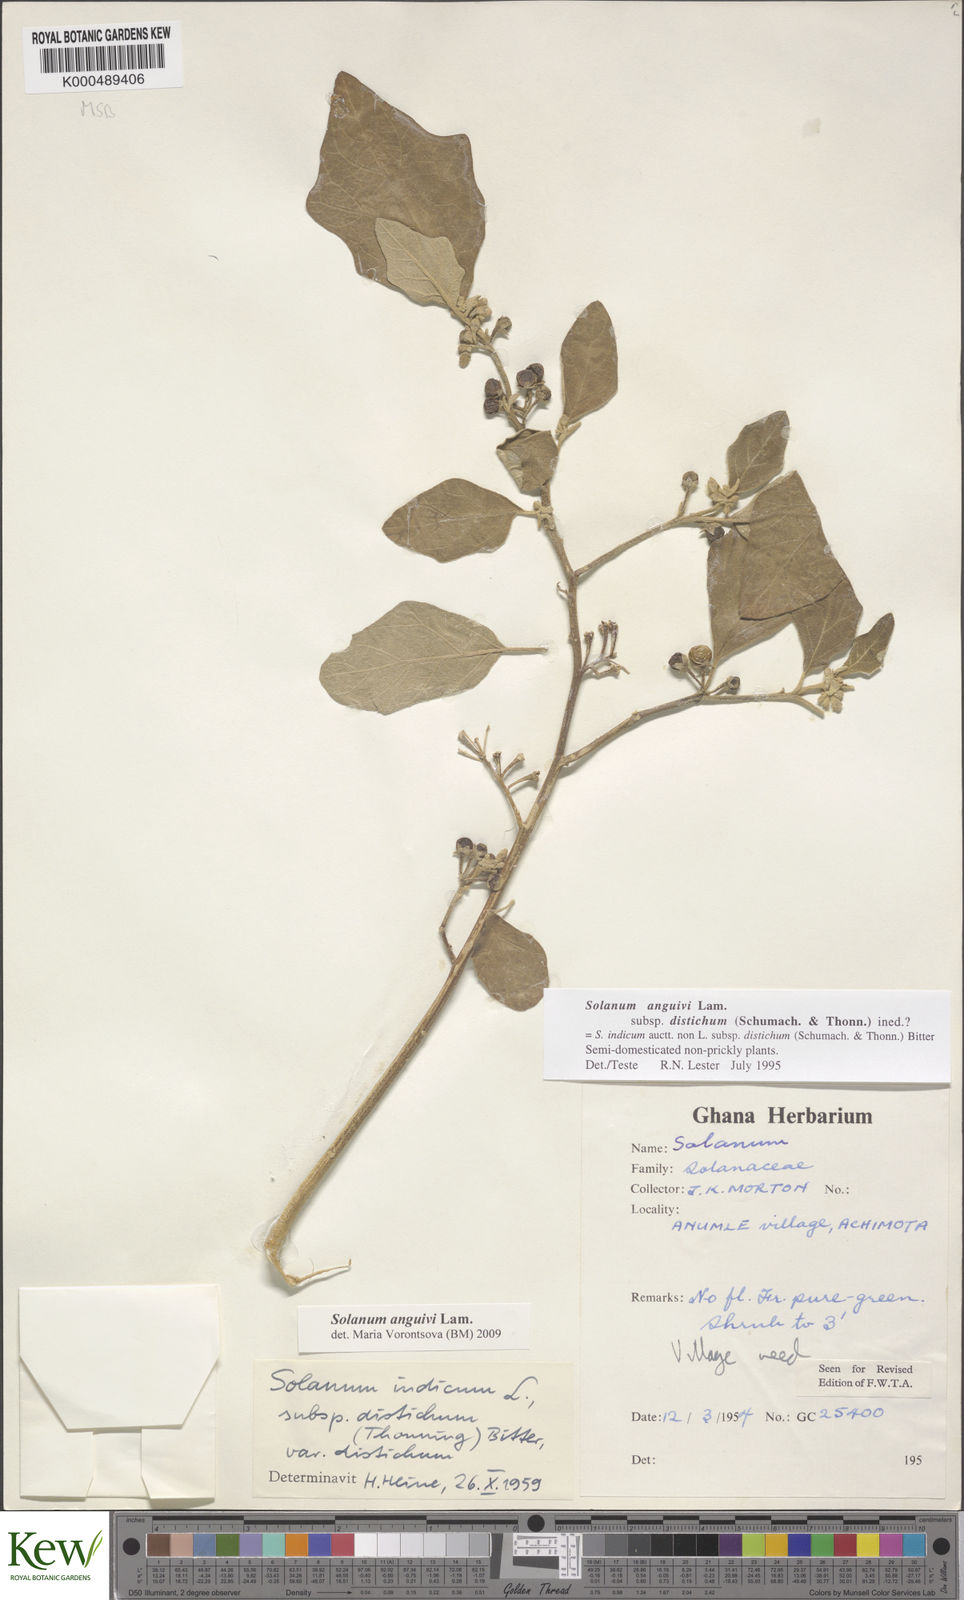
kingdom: Plantae
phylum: Tracheophyta
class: Magnoliopsida
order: Solanales
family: Solanaceae
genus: Solanum
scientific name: Solanum anguivi
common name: Forest bitterberry
